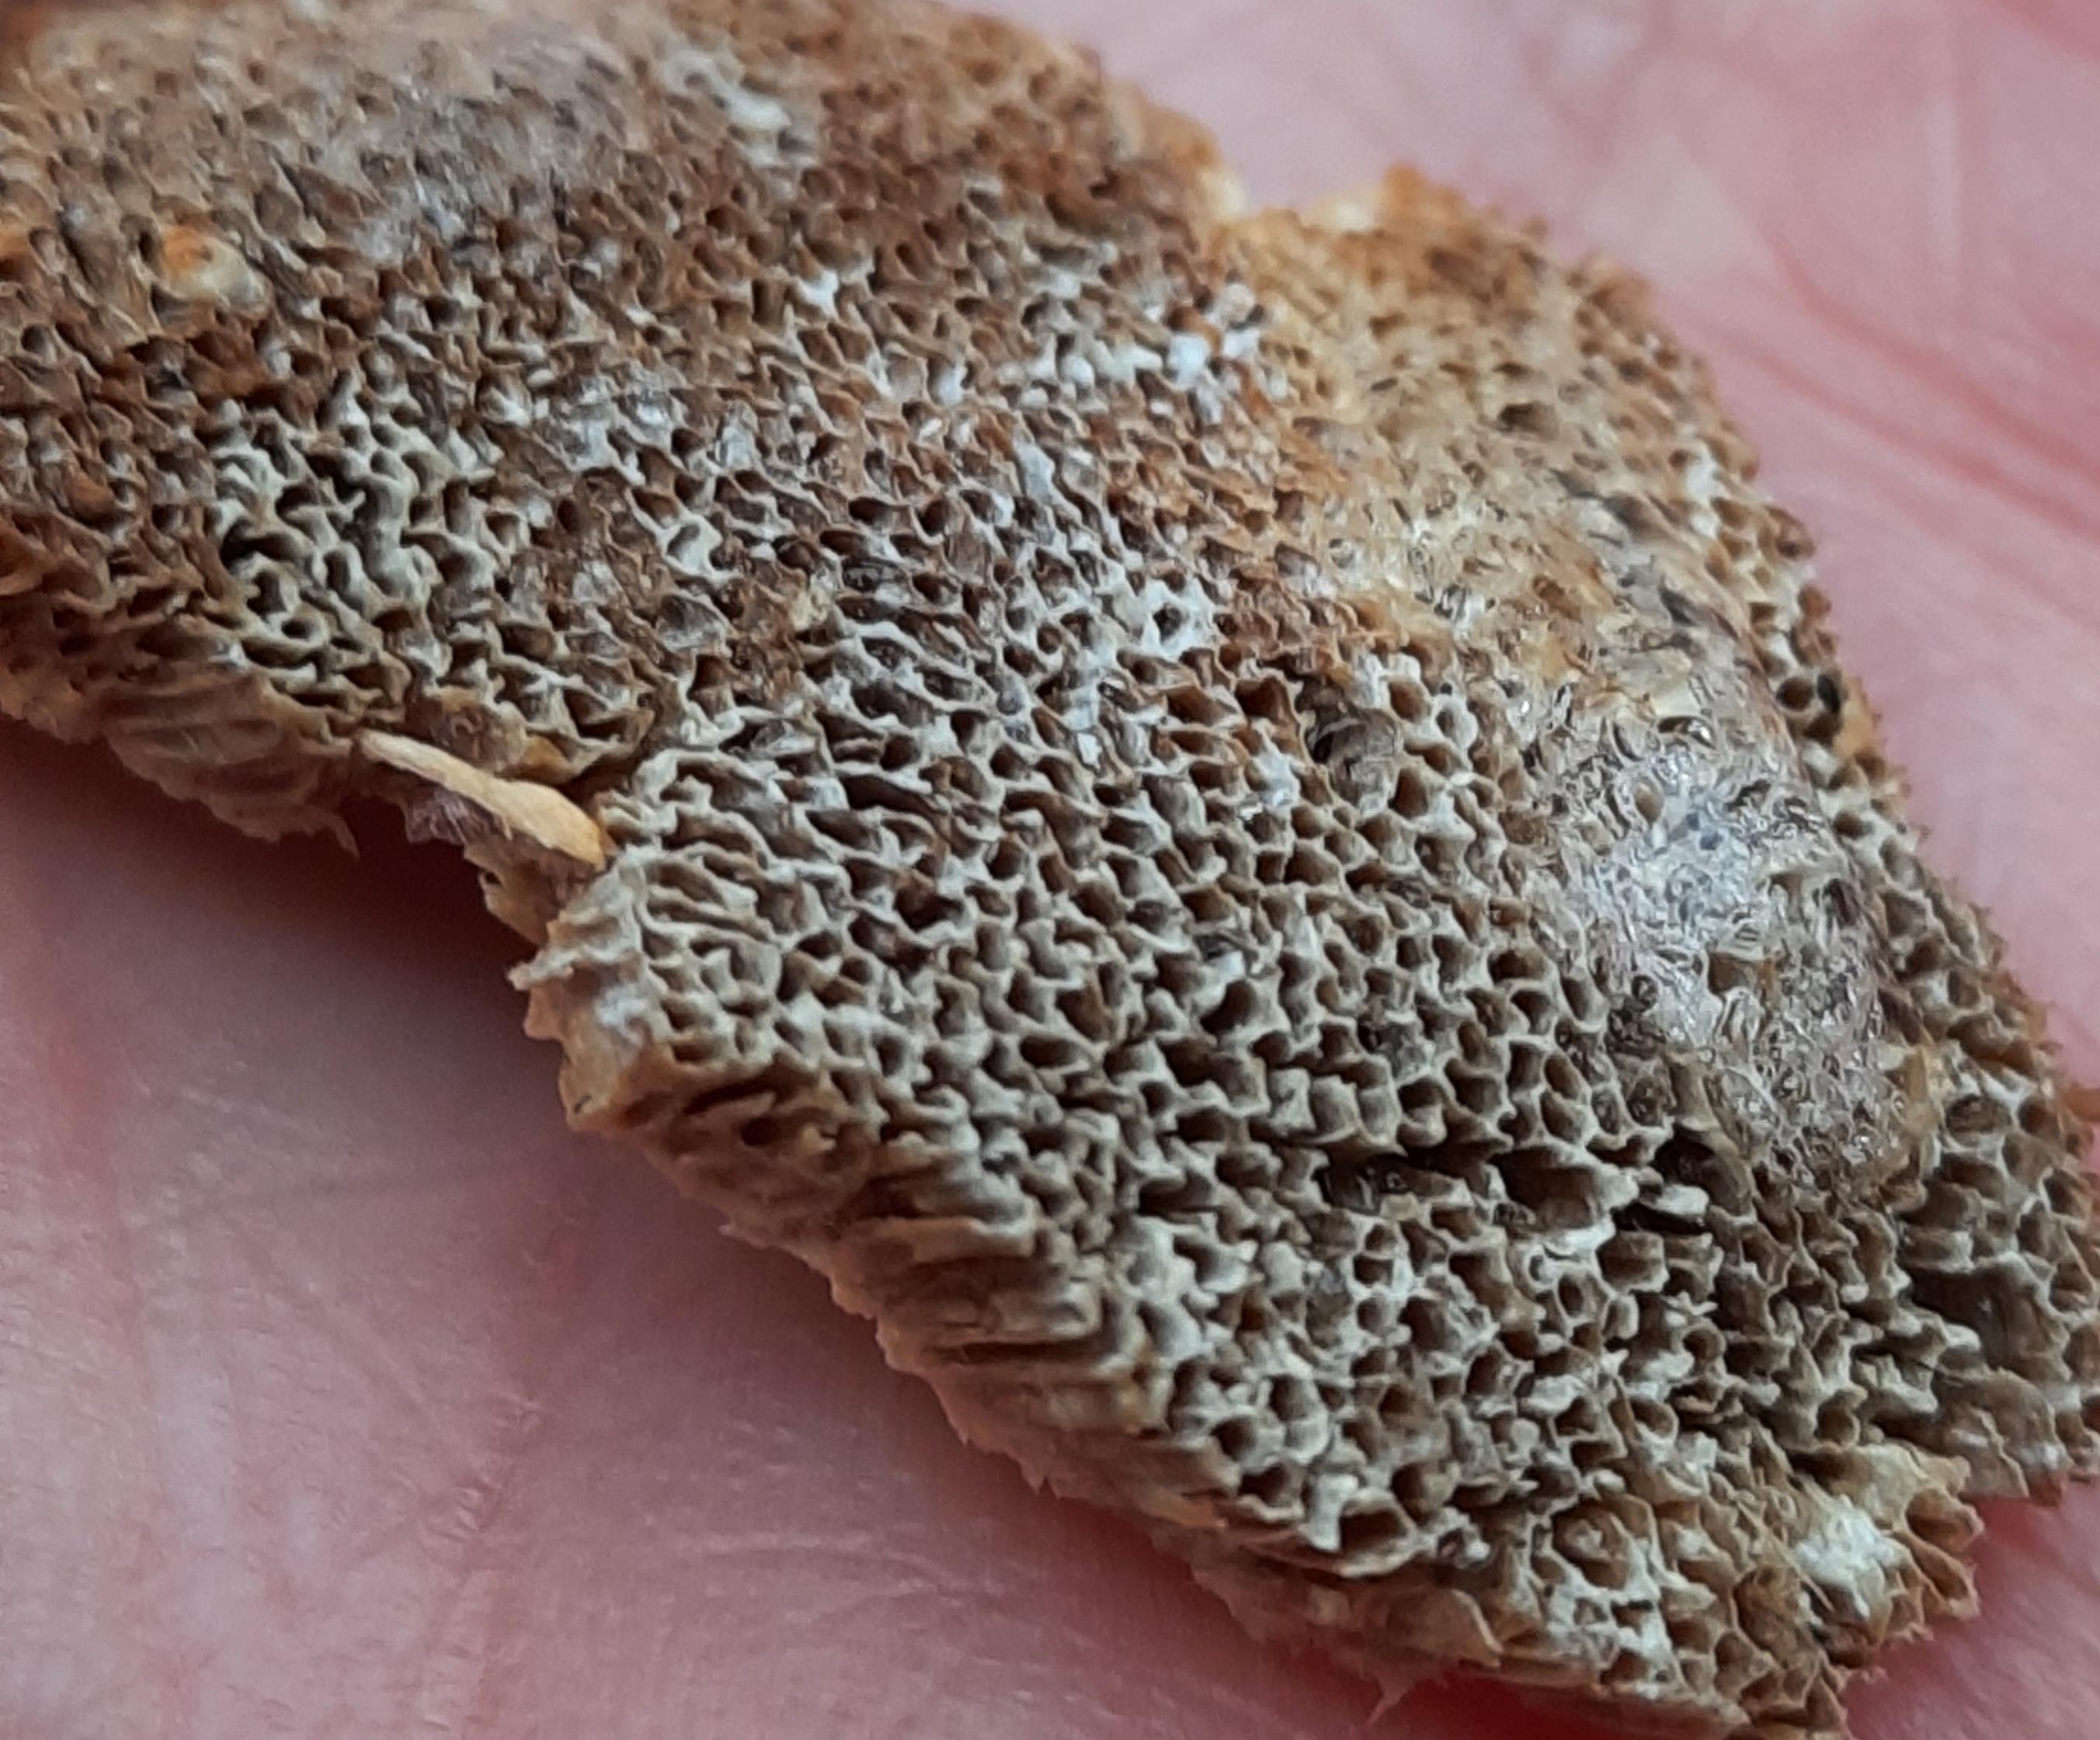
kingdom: Fungi
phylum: Basidiomycota
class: Agaricomycetes
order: Polyporales
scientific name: Polyporales
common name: poresvampordenen
